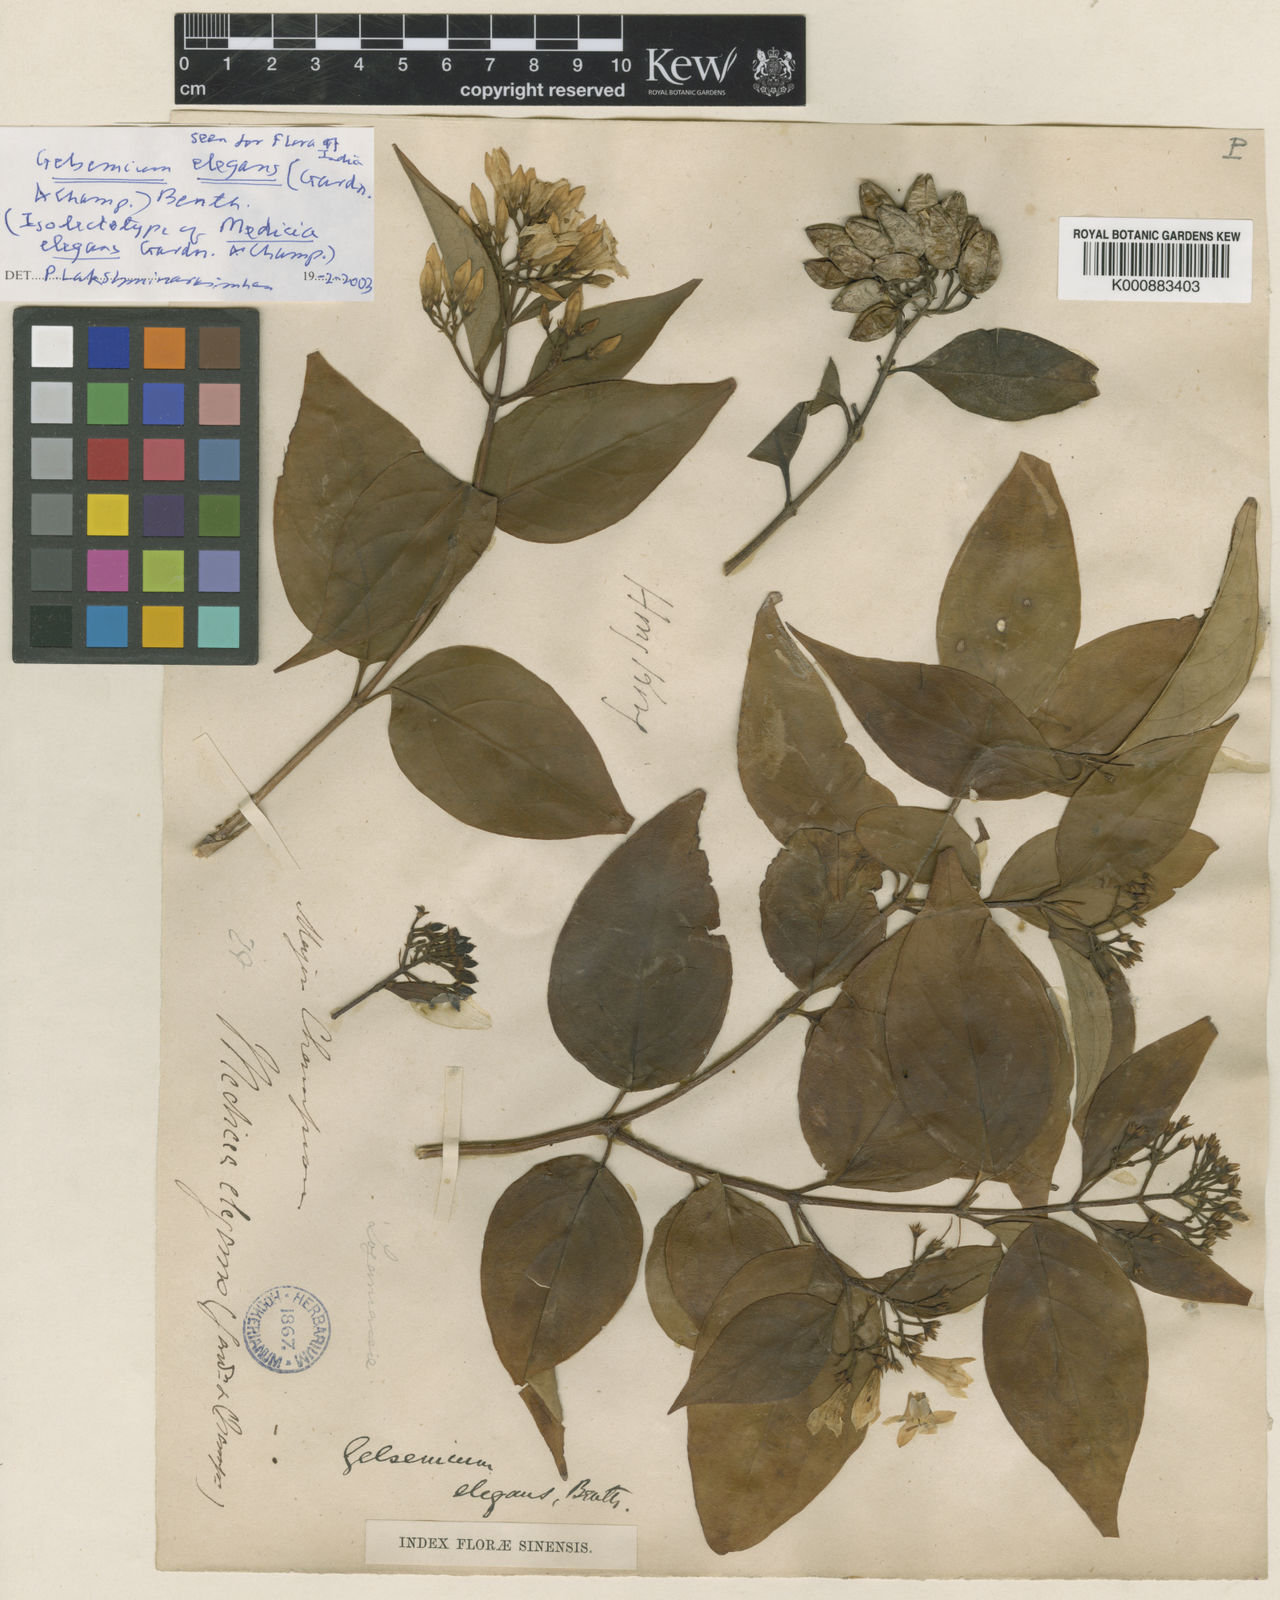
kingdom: Plantae
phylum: Tracheophyta
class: Magnoliopsida
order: Gentianales
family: Gelsemiaceae
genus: Gelsemium
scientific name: Gelsemium elegans
